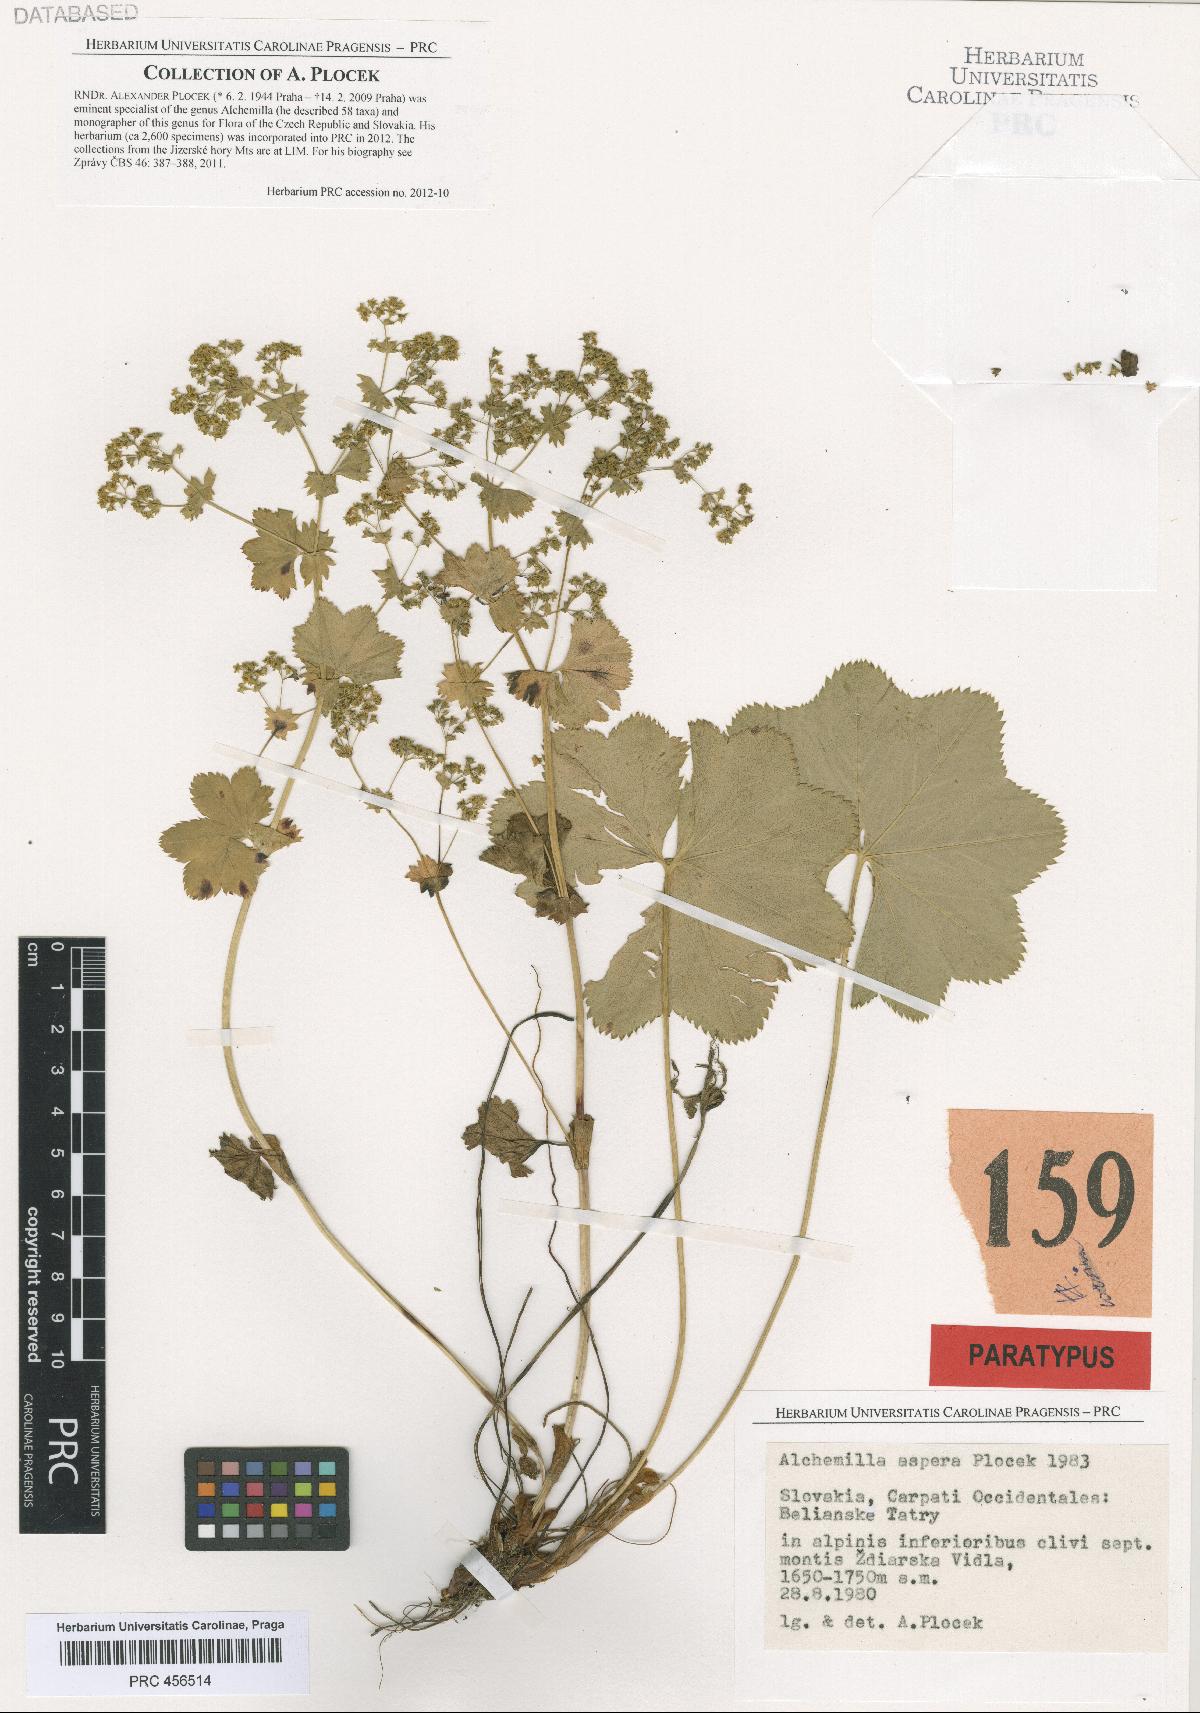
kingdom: Plantae
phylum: Tracheophyta
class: Magnoliopsida
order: Rosales
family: Rosaceae
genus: Alchemilla
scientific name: Alchemilla aspera
